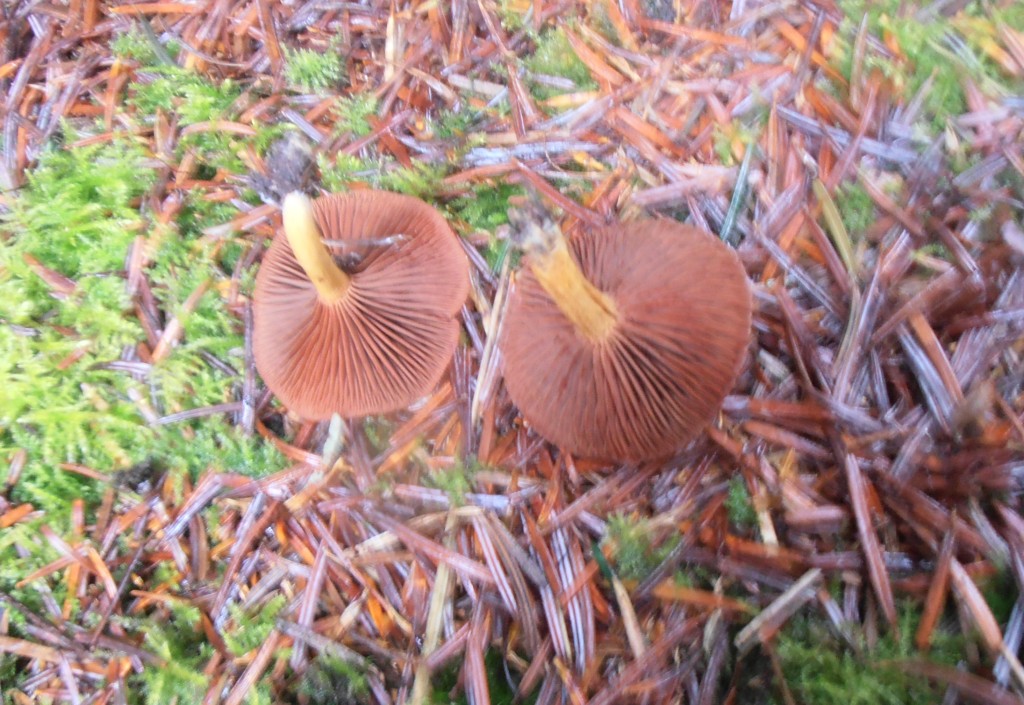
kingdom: Fungi
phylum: Basidiomycota
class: Agaricomycetes
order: Agaricales
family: Cortinariaceae
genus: Cortinarius
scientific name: Cortinarius
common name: cinnoberbladet slørhat
